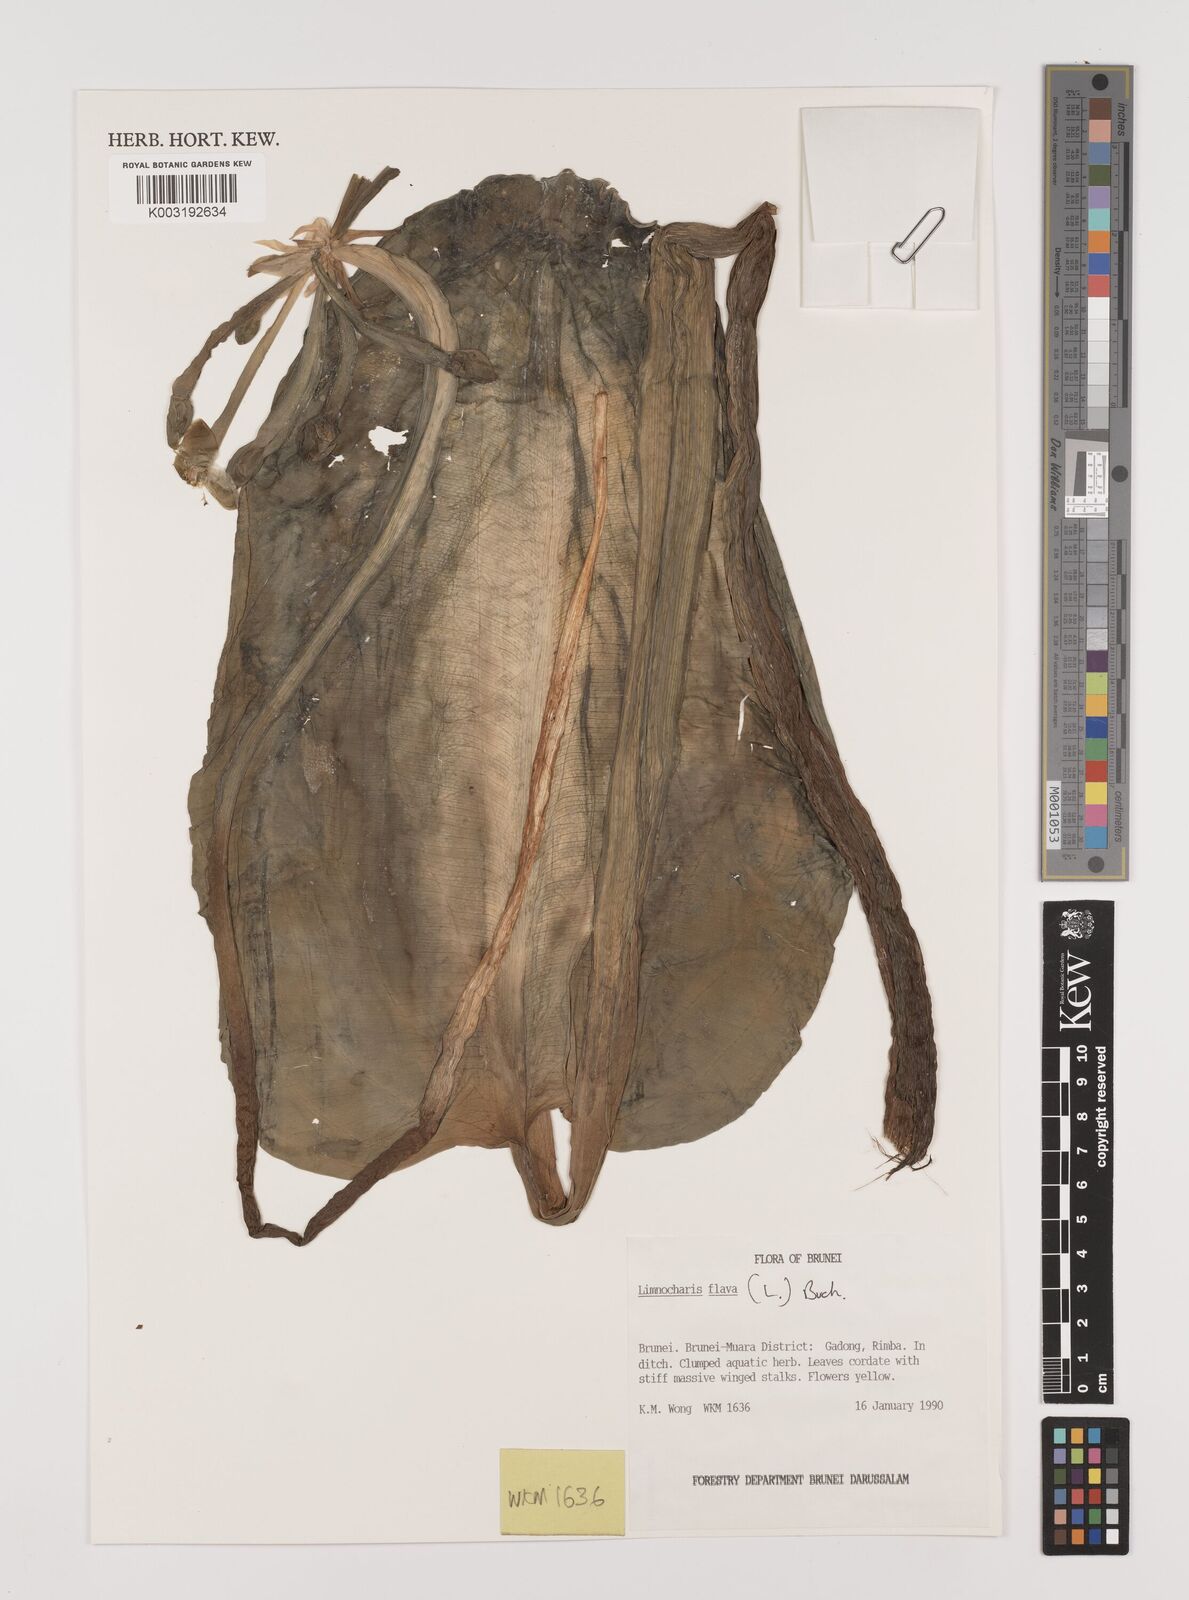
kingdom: Plantae
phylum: Tracheophyta
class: Liliopsida
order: Alismatales
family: Alismataceae
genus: Limnocharis
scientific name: Limnocharis flava
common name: Sawah-flower-rush
